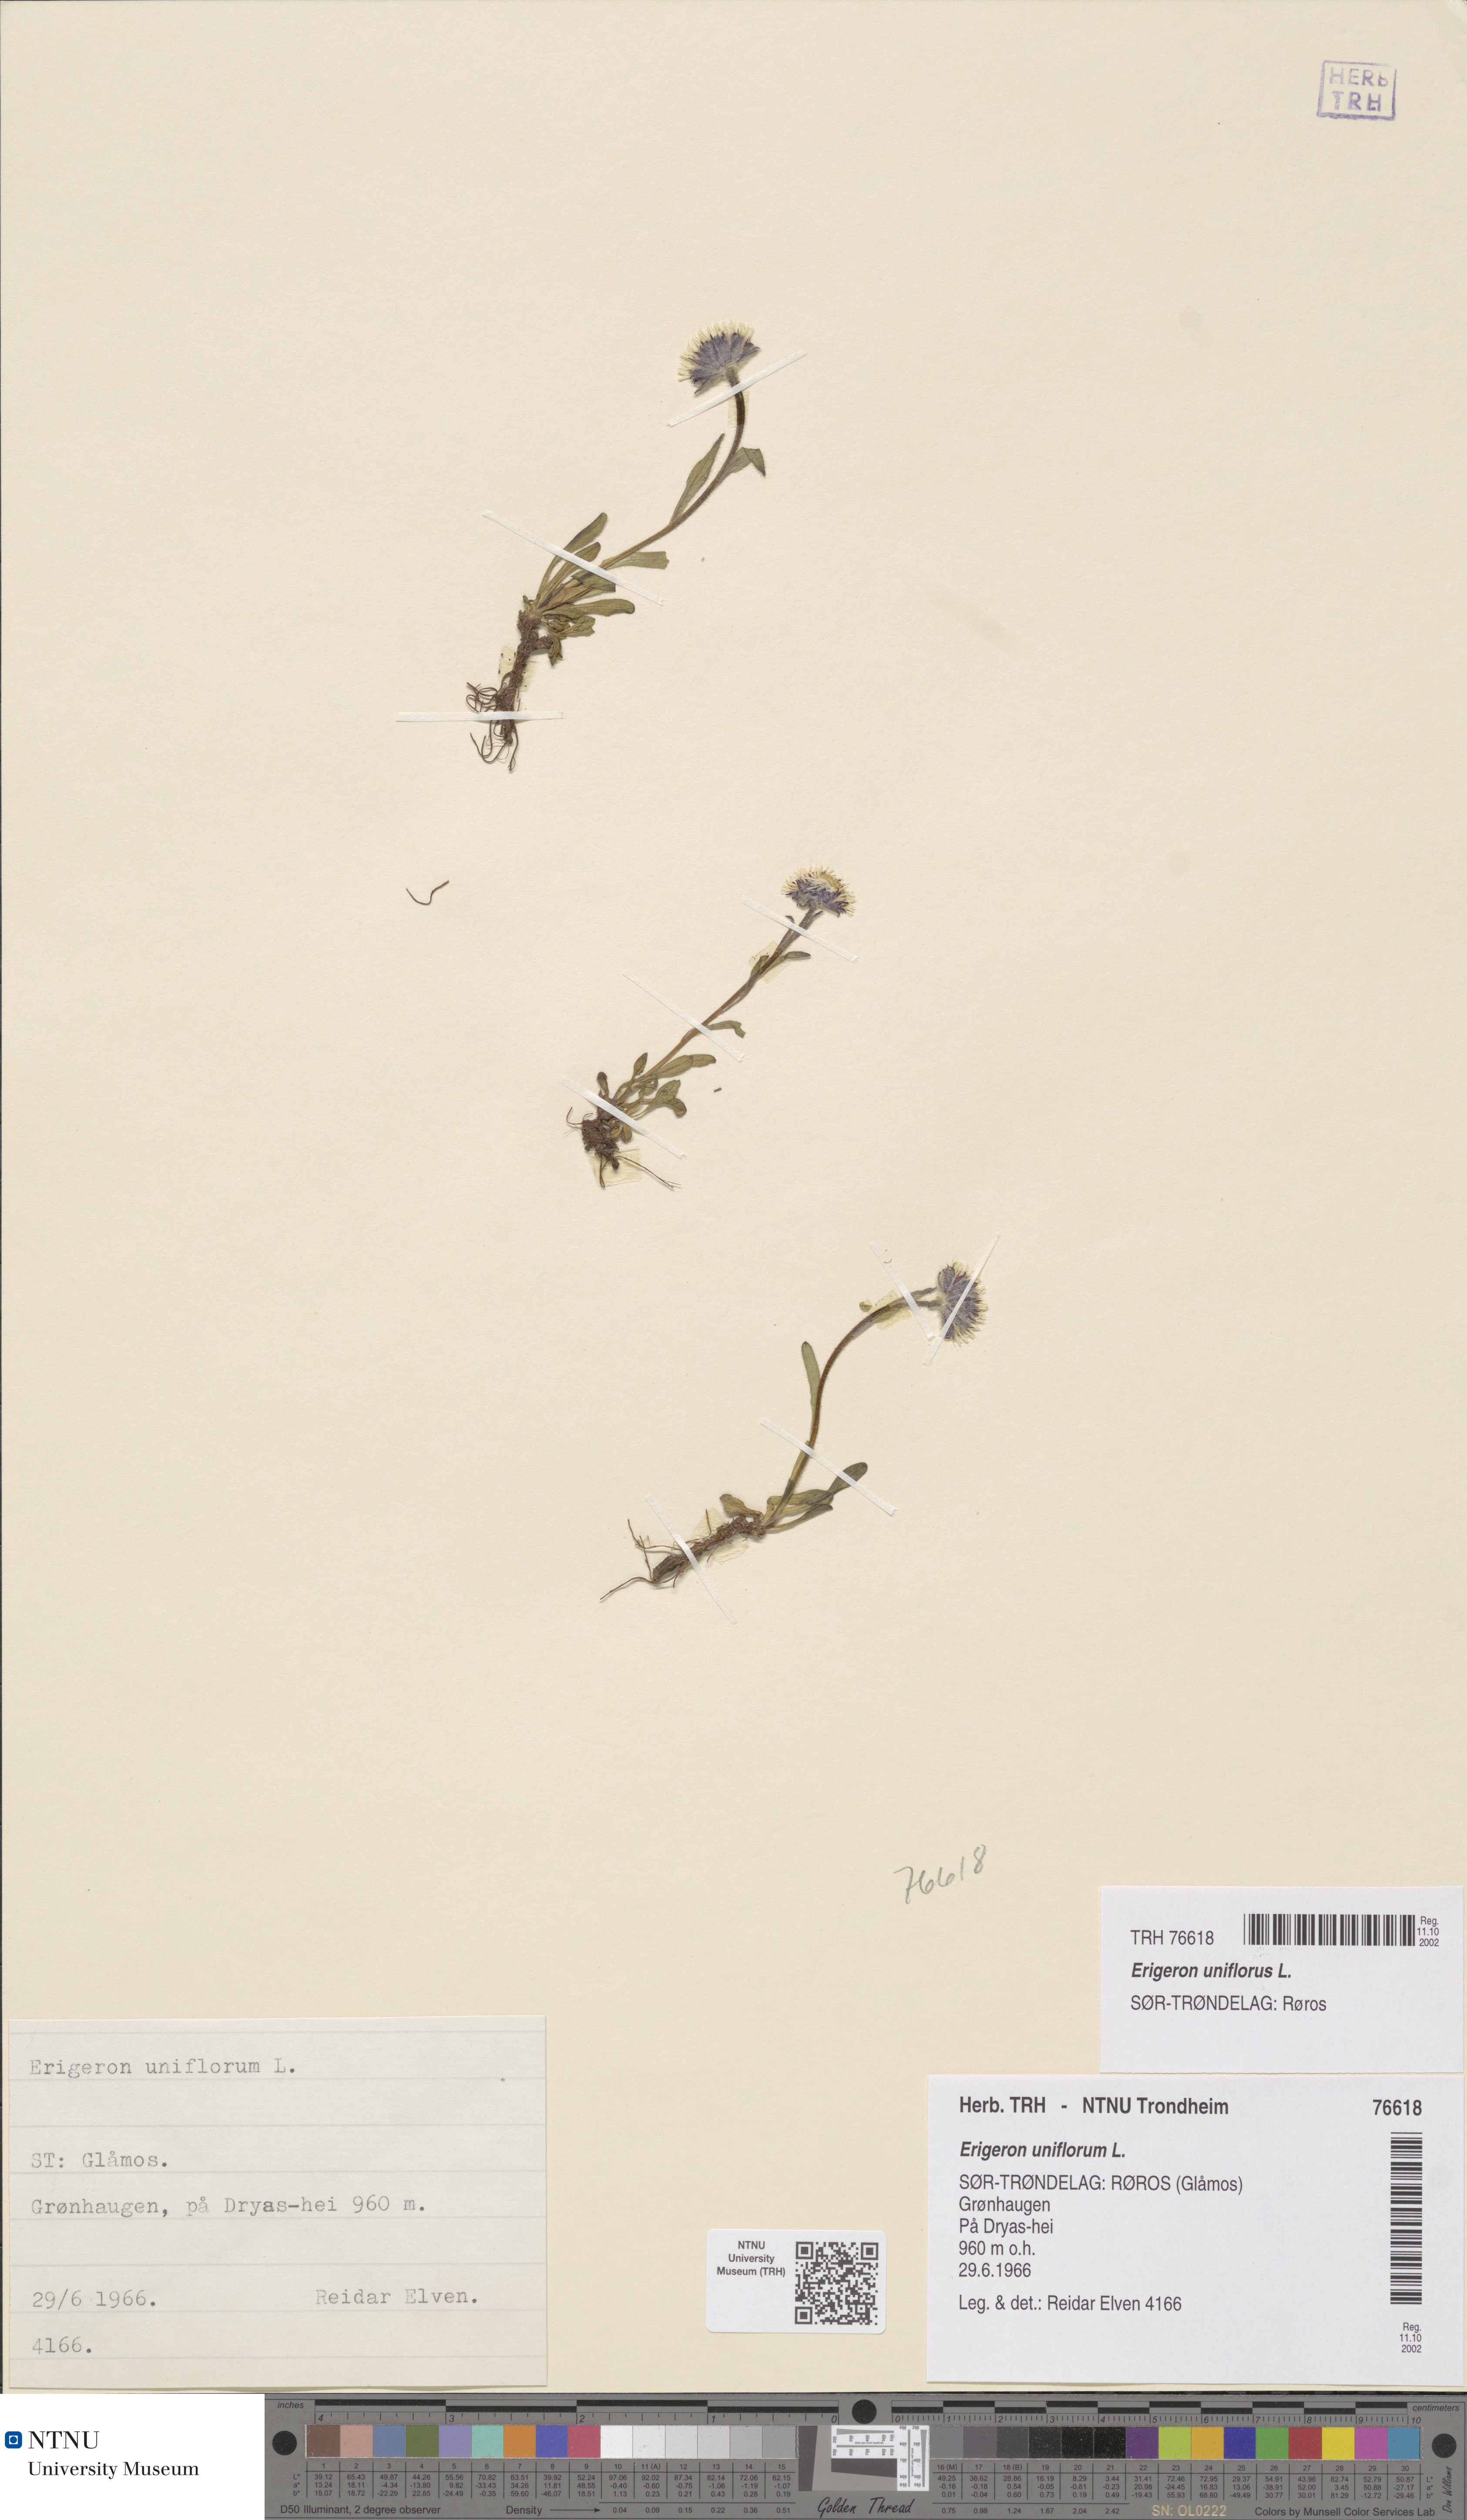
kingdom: Plantae
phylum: Tracheophyta
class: Magnoliopsida
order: Asterales
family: Asteraceae
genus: Erigeron
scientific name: Erigeron uniflorus
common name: Northern daisy
